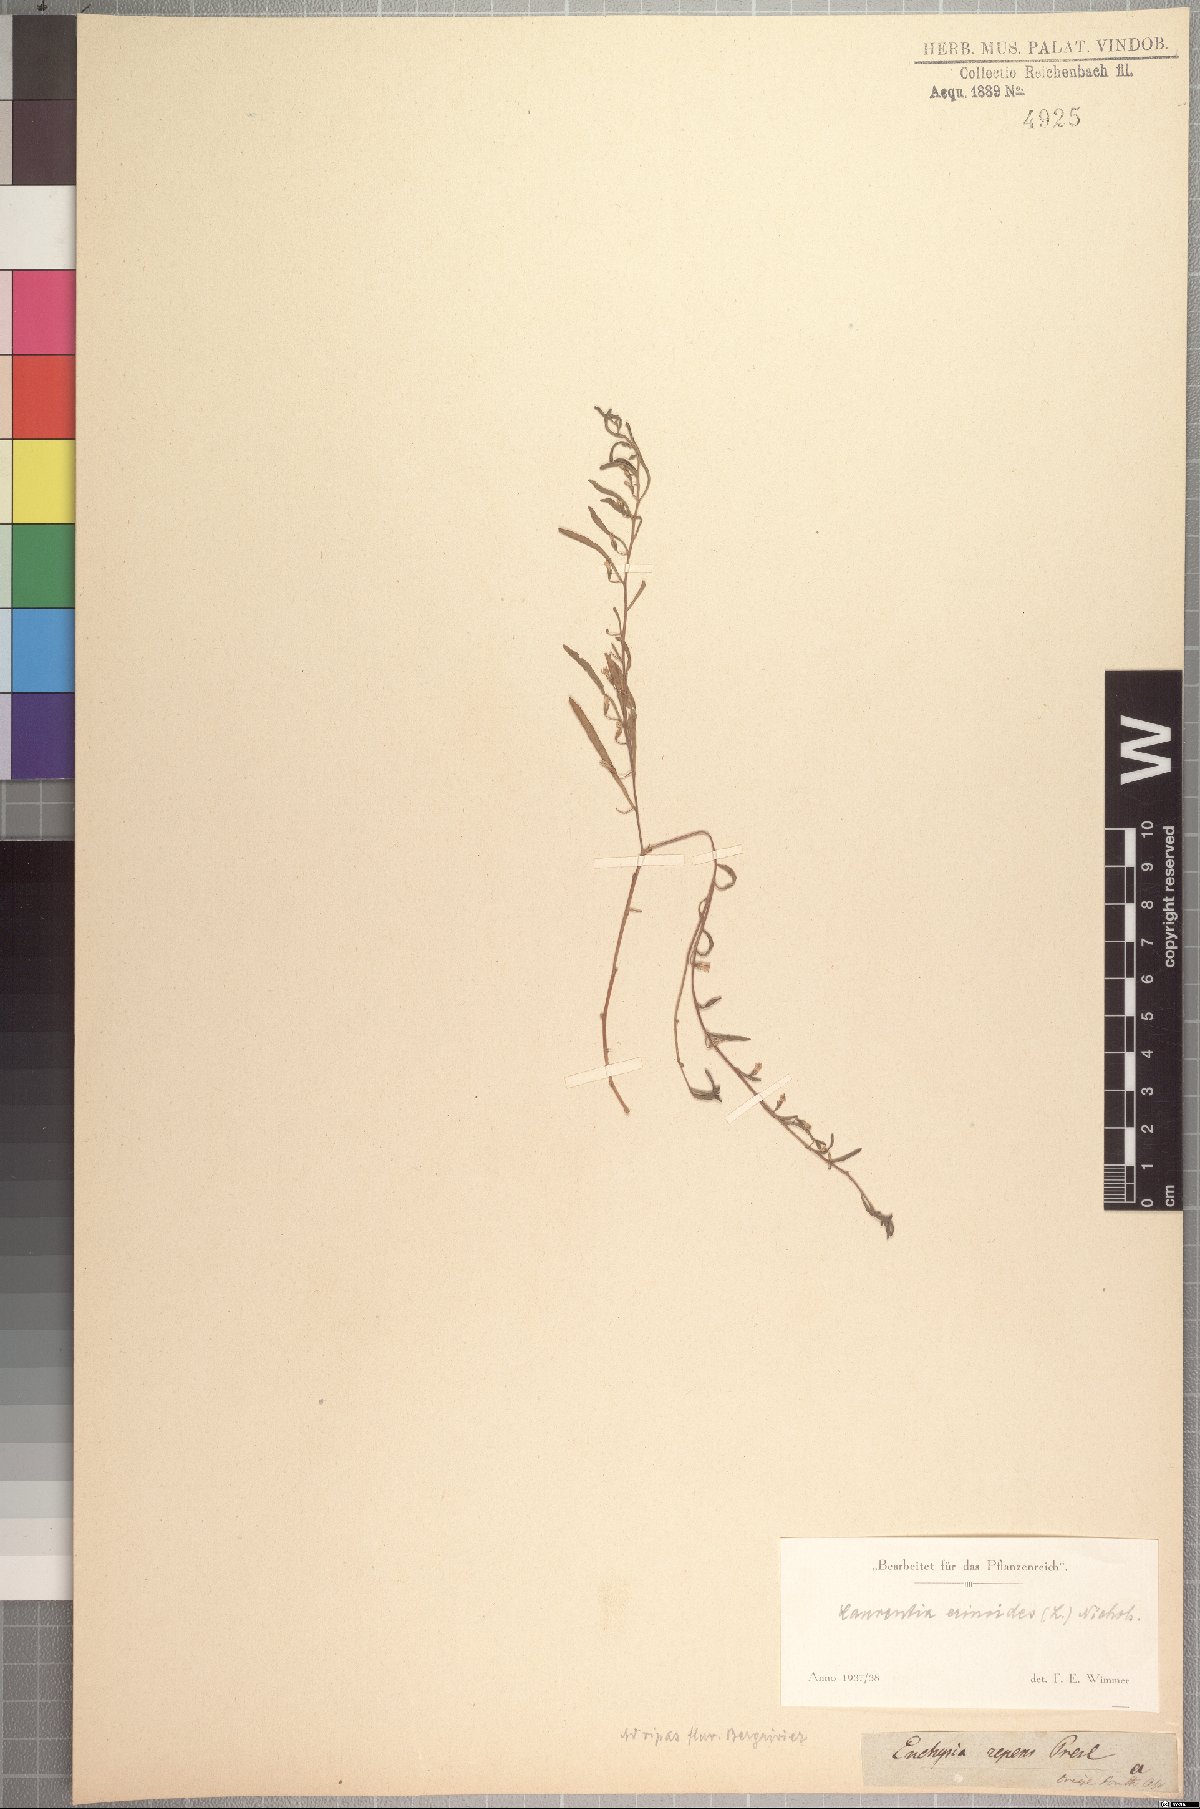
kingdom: Plantae
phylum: Tracheophyta
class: Magnoliopsida
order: Asterales
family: Campanulaceae
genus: Wimmerella
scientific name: Wimmerella secunda
